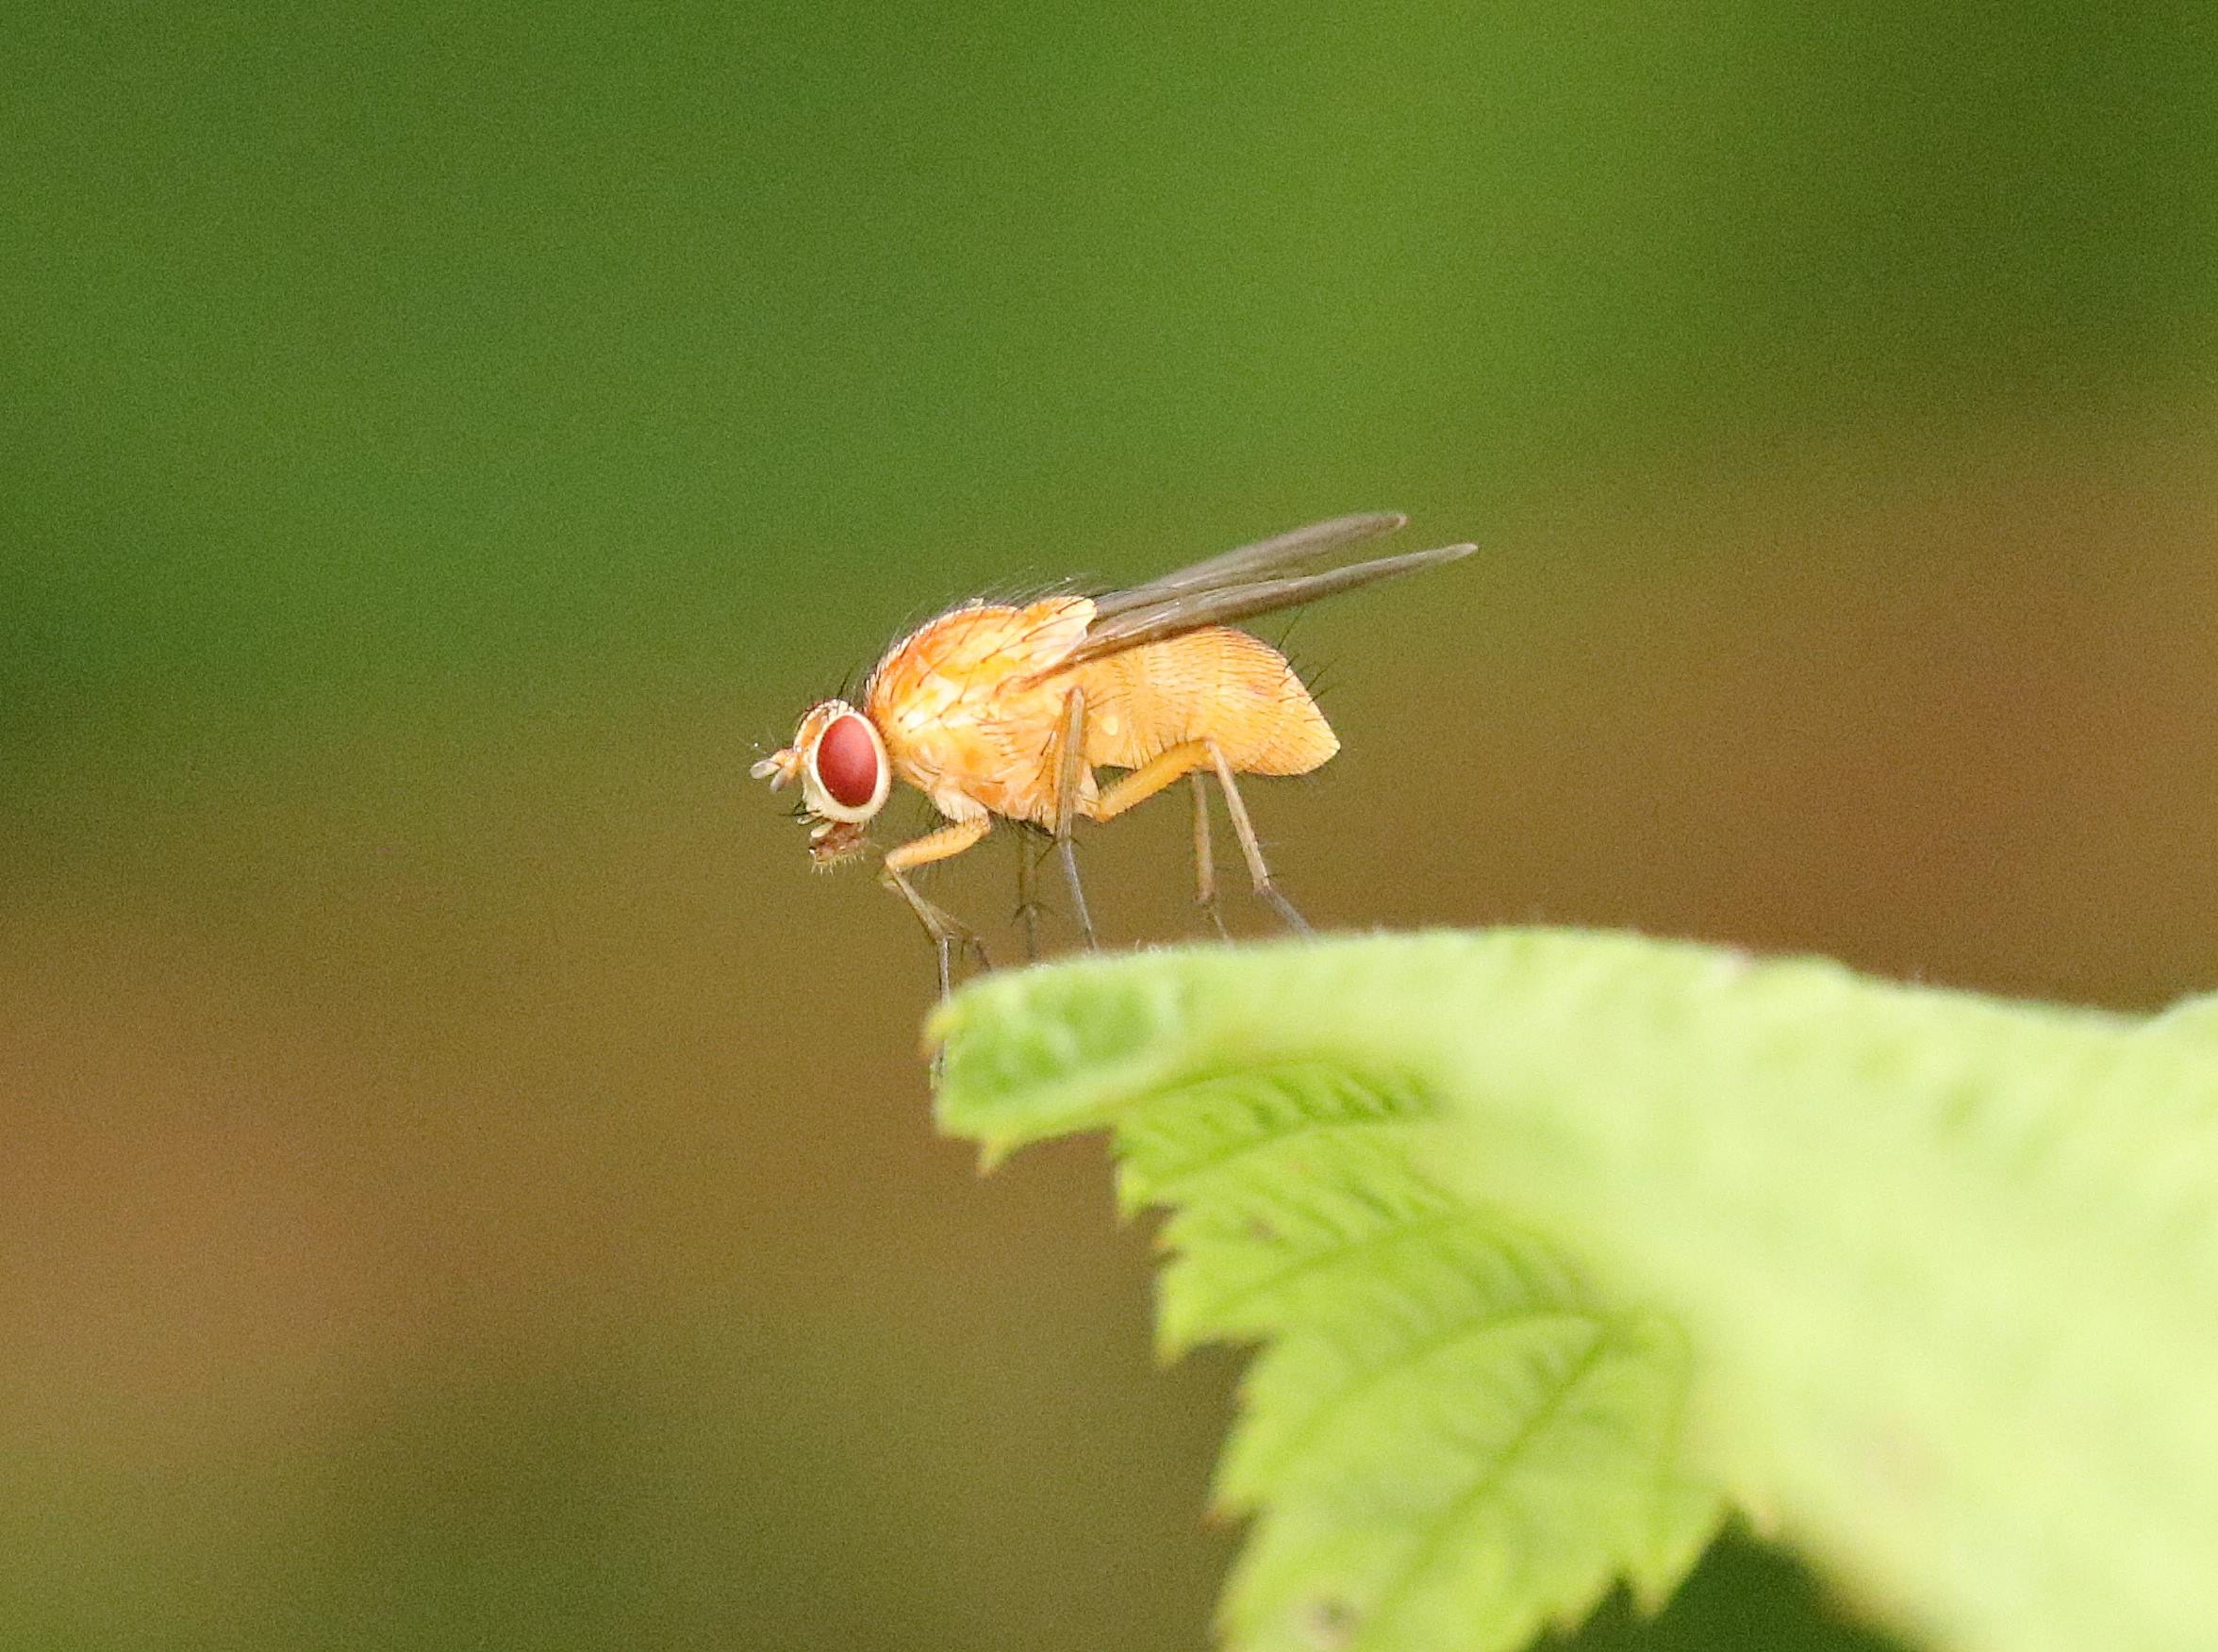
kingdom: Animalia
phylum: Arthropoda
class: Insecta
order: Diptera
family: Muscidae
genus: Phaonia
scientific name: Phaonia pallida
